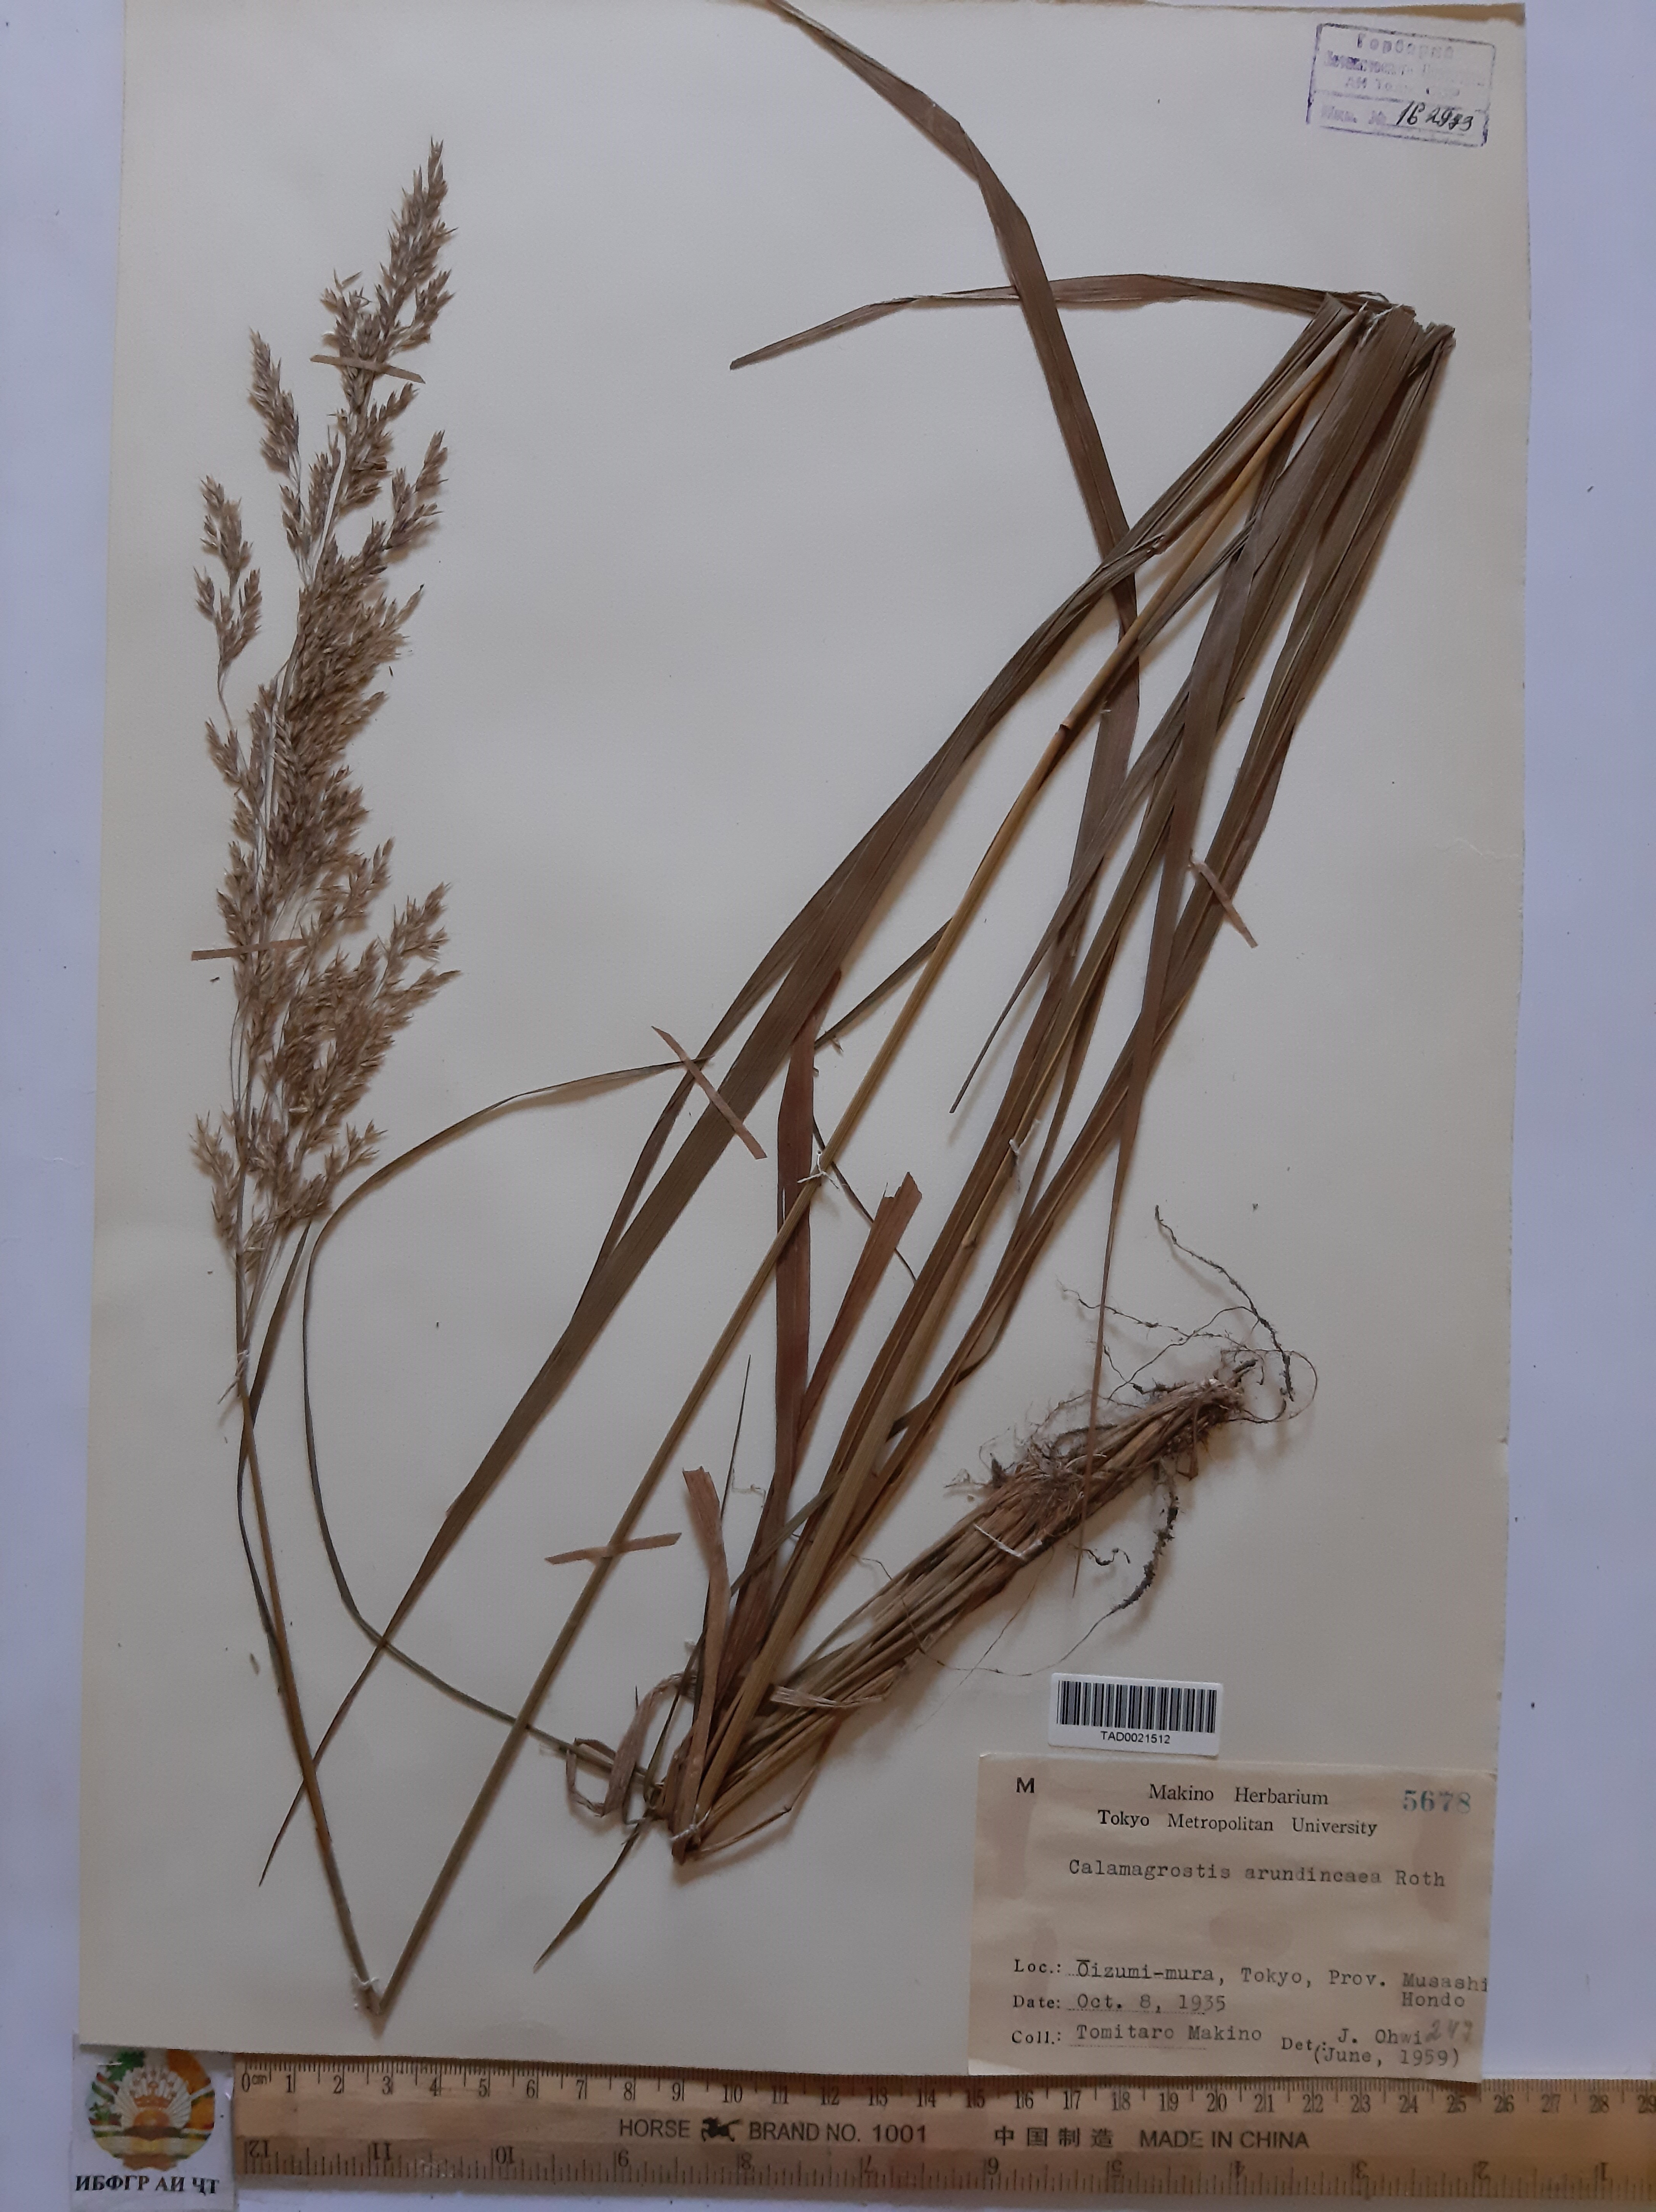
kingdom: Plantae
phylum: Tracheophyta
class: Liliopsida
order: Poales
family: Poaceae
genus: Calamagrostis
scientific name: Calamagrostis arundinacea
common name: Metskastik
